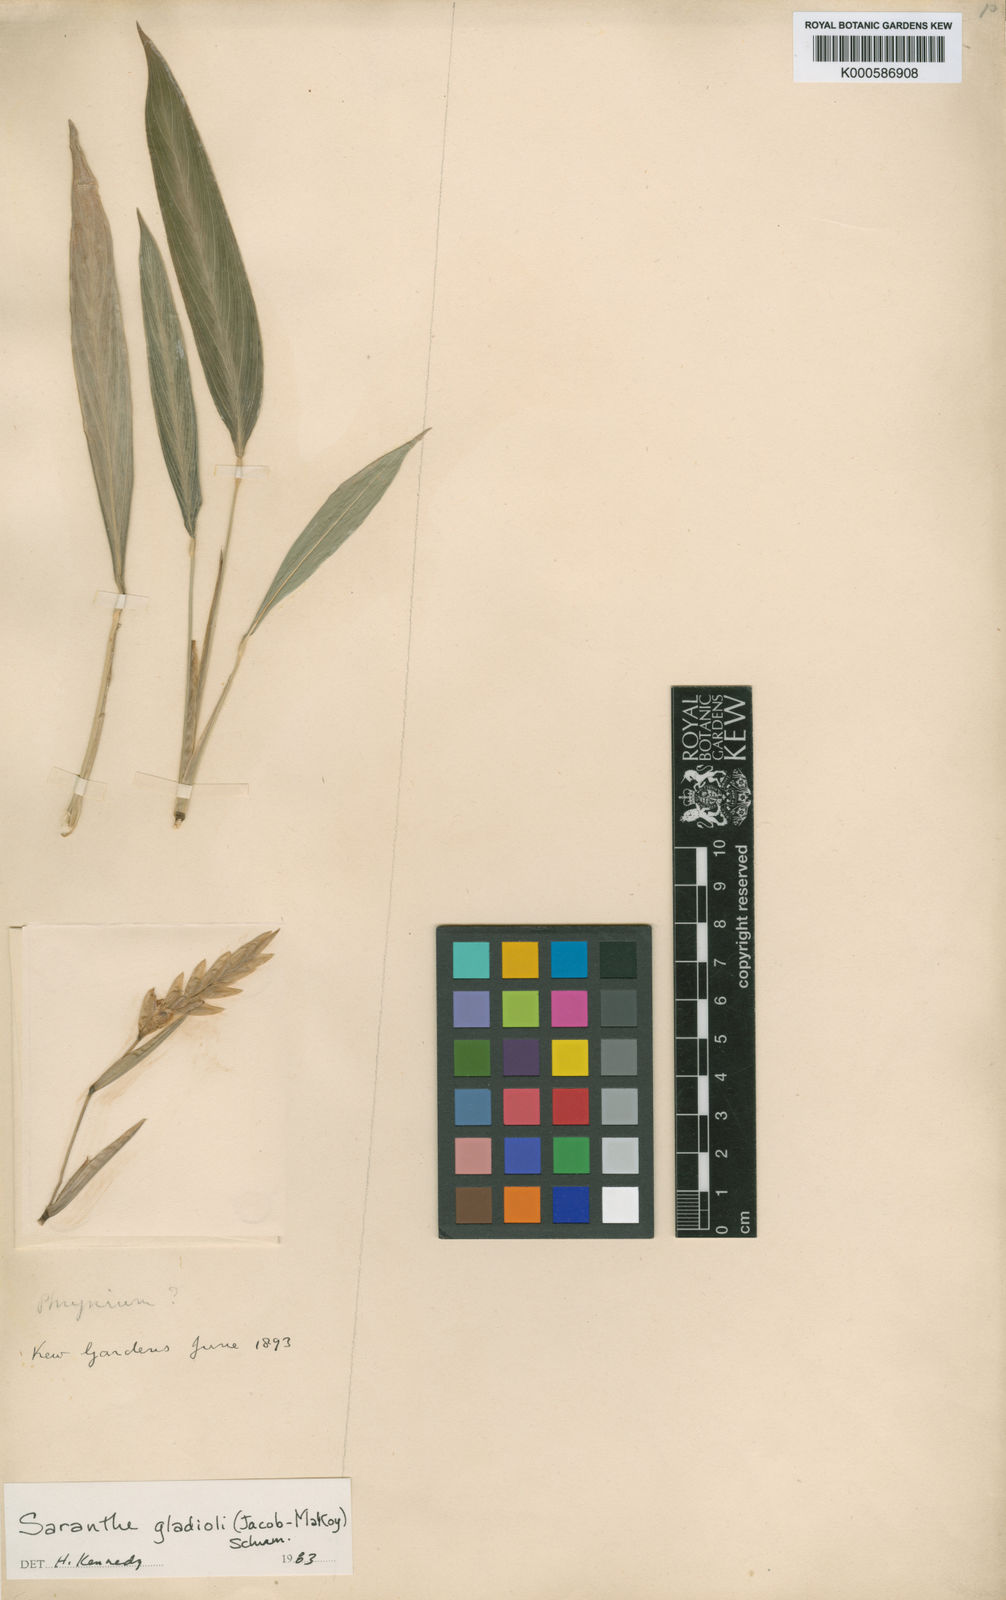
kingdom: Plantae
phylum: Tracheophyta
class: Liliopsida
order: Zingiberales
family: Marantaceae
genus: Saranthe
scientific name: Saranthe gladioli
